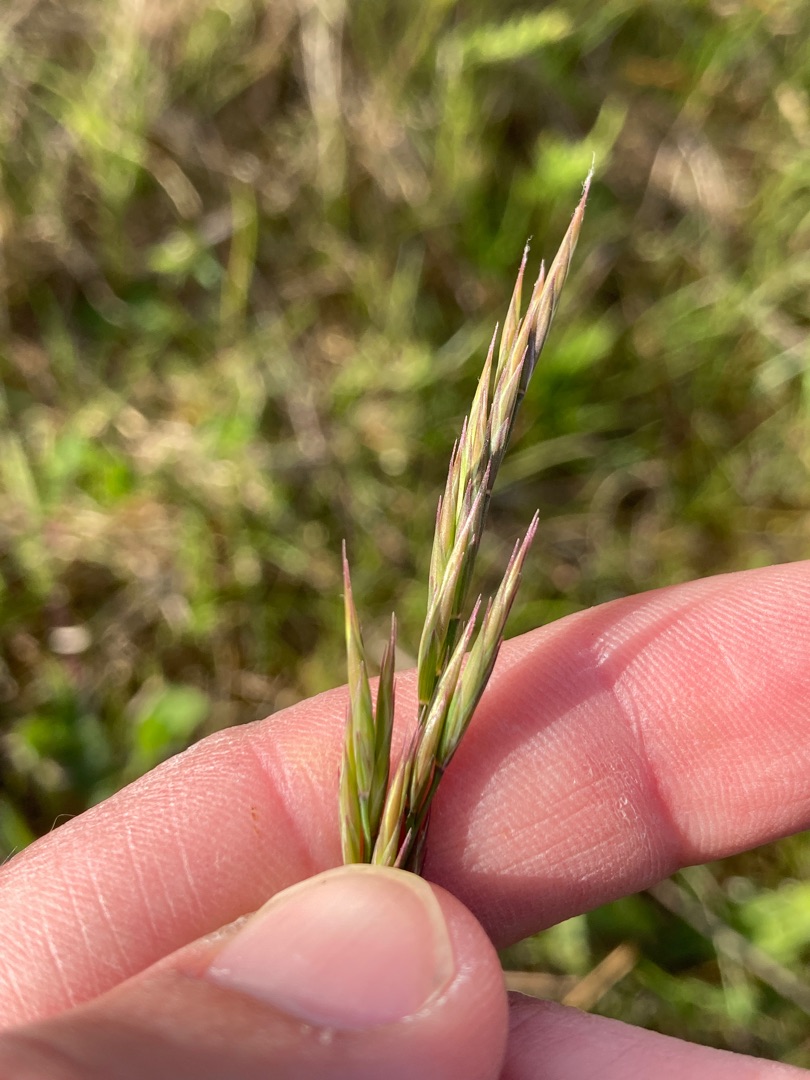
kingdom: Plantae
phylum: Tracheophyta
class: Liliopsida
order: Poales
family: Poaceae
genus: Festuca
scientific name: Festuca rubra
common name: Rød svingel
